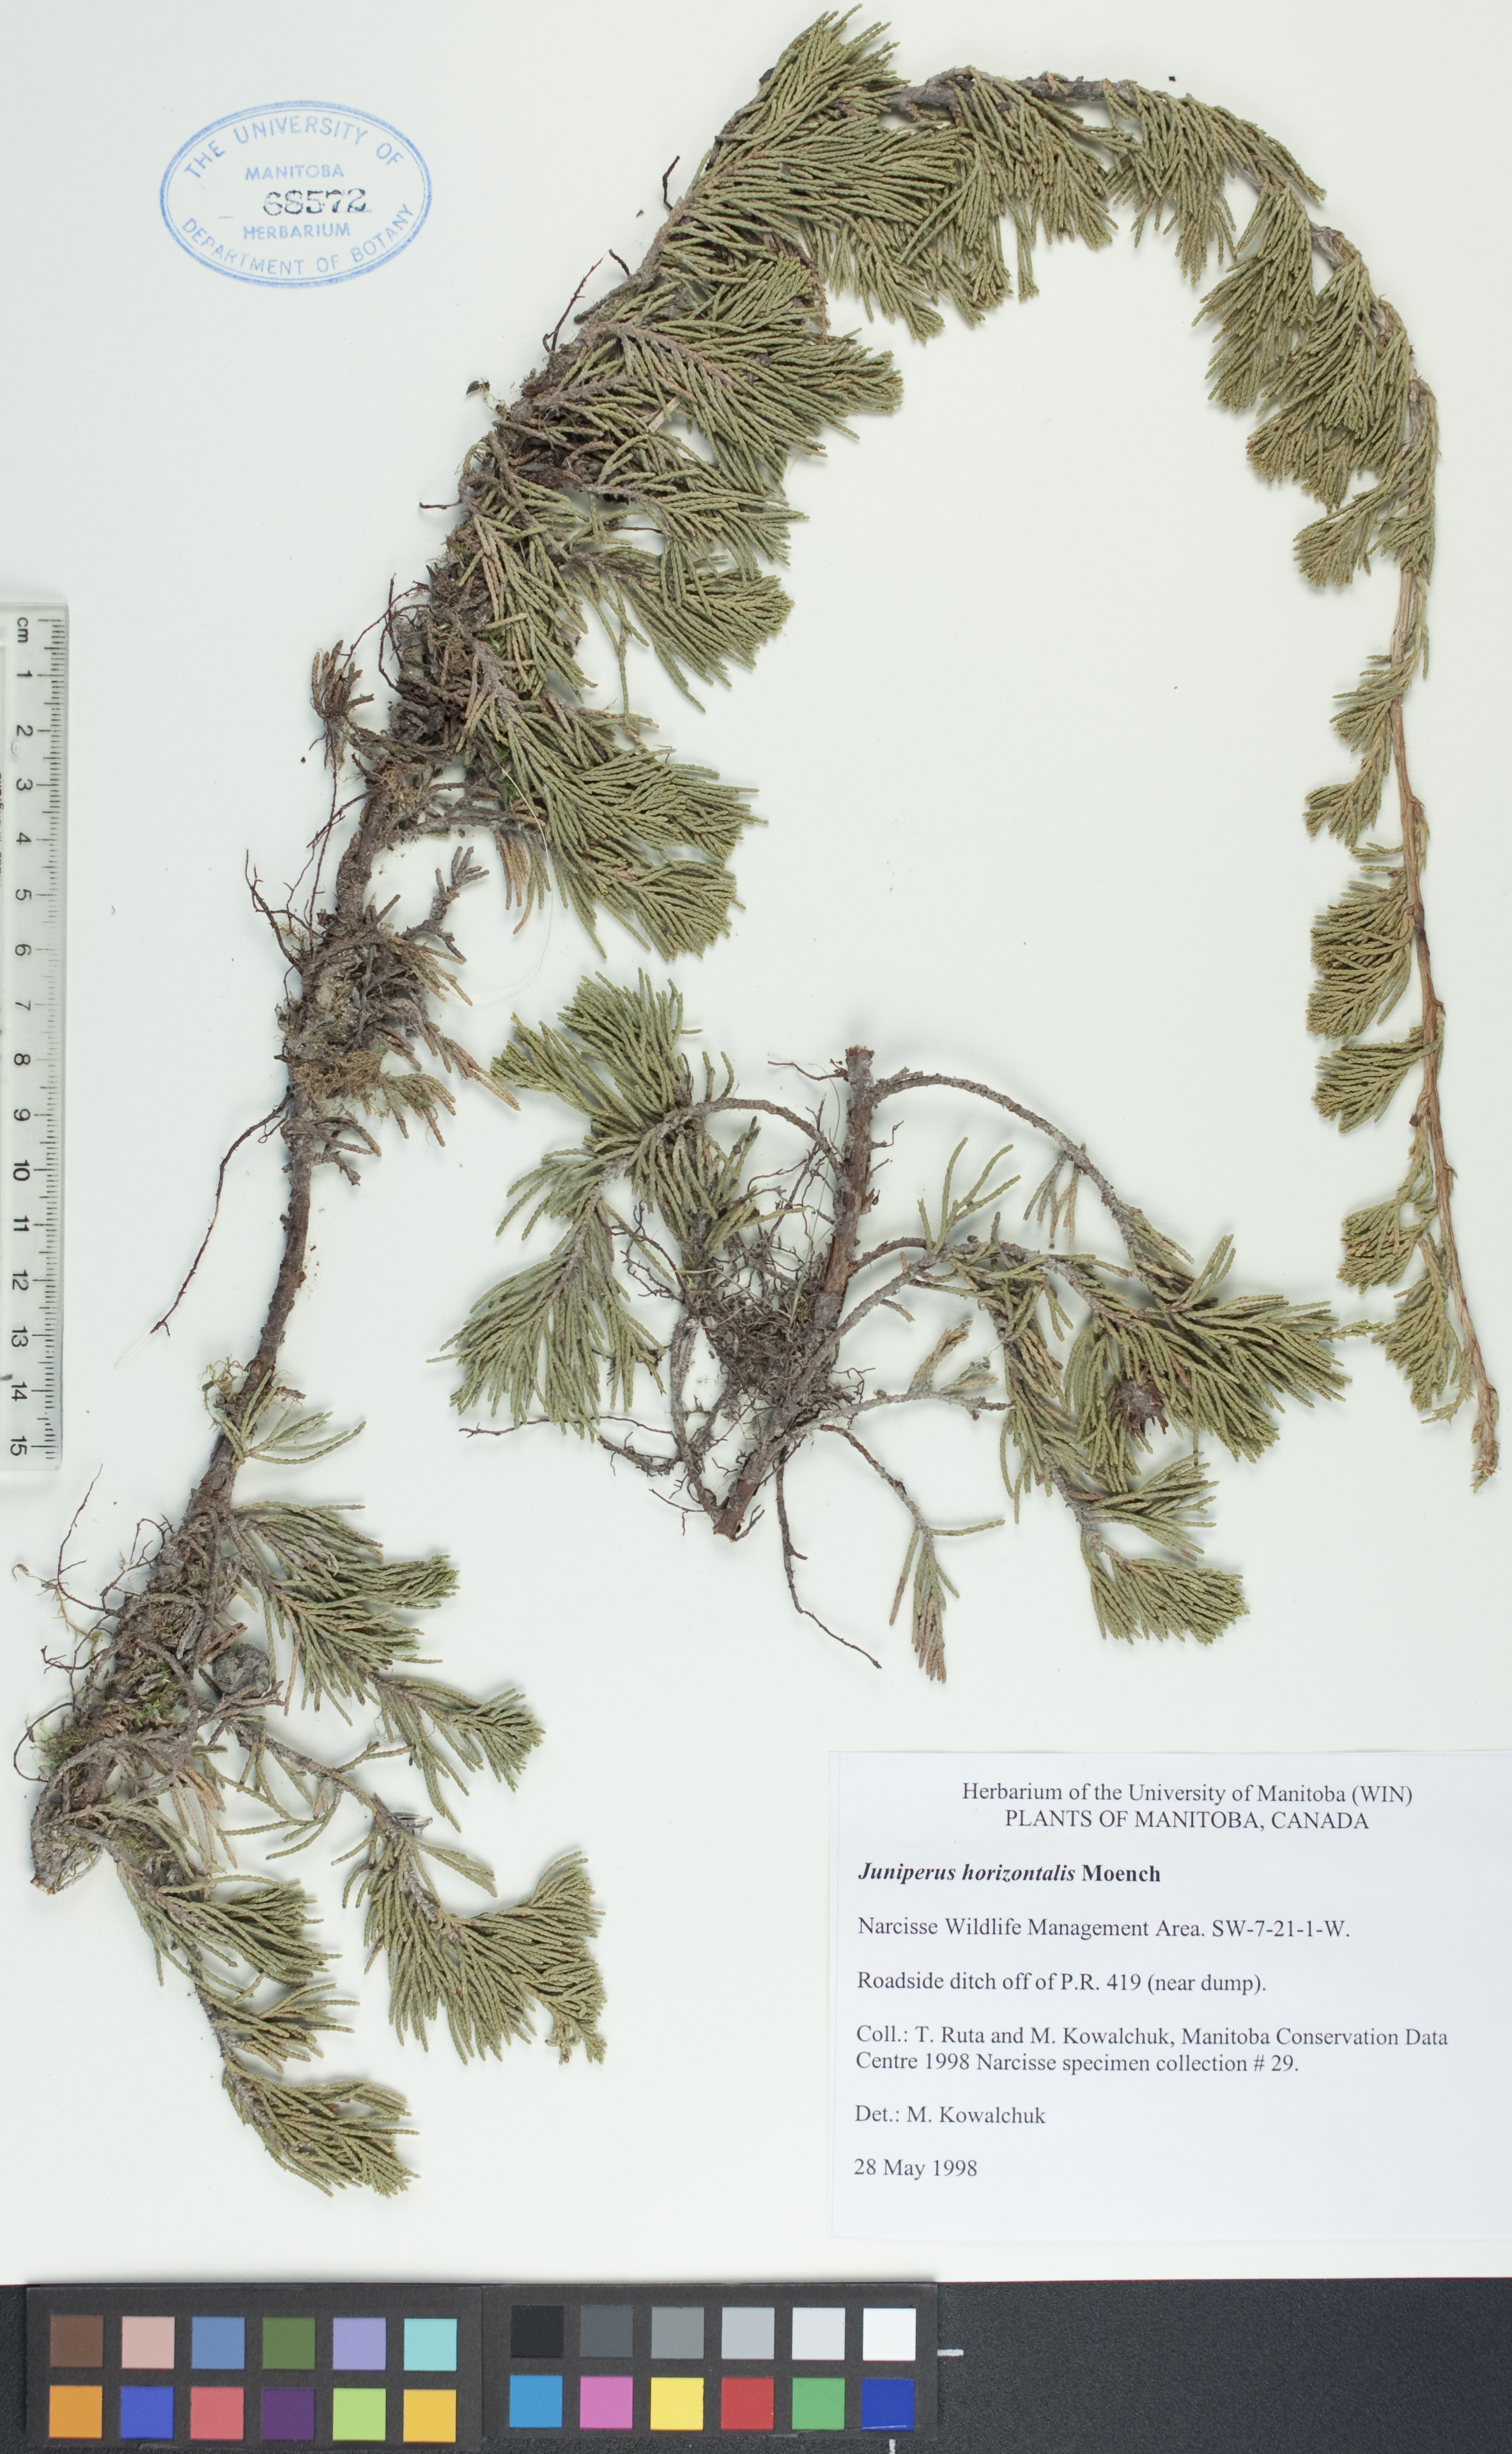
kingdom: Plantae
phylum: Tracheophyta
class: Pinopsida
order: Pinales
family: Cupressaceae
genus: Juniperus
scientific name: Juniperus horizontalis
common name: Creeping juniper
